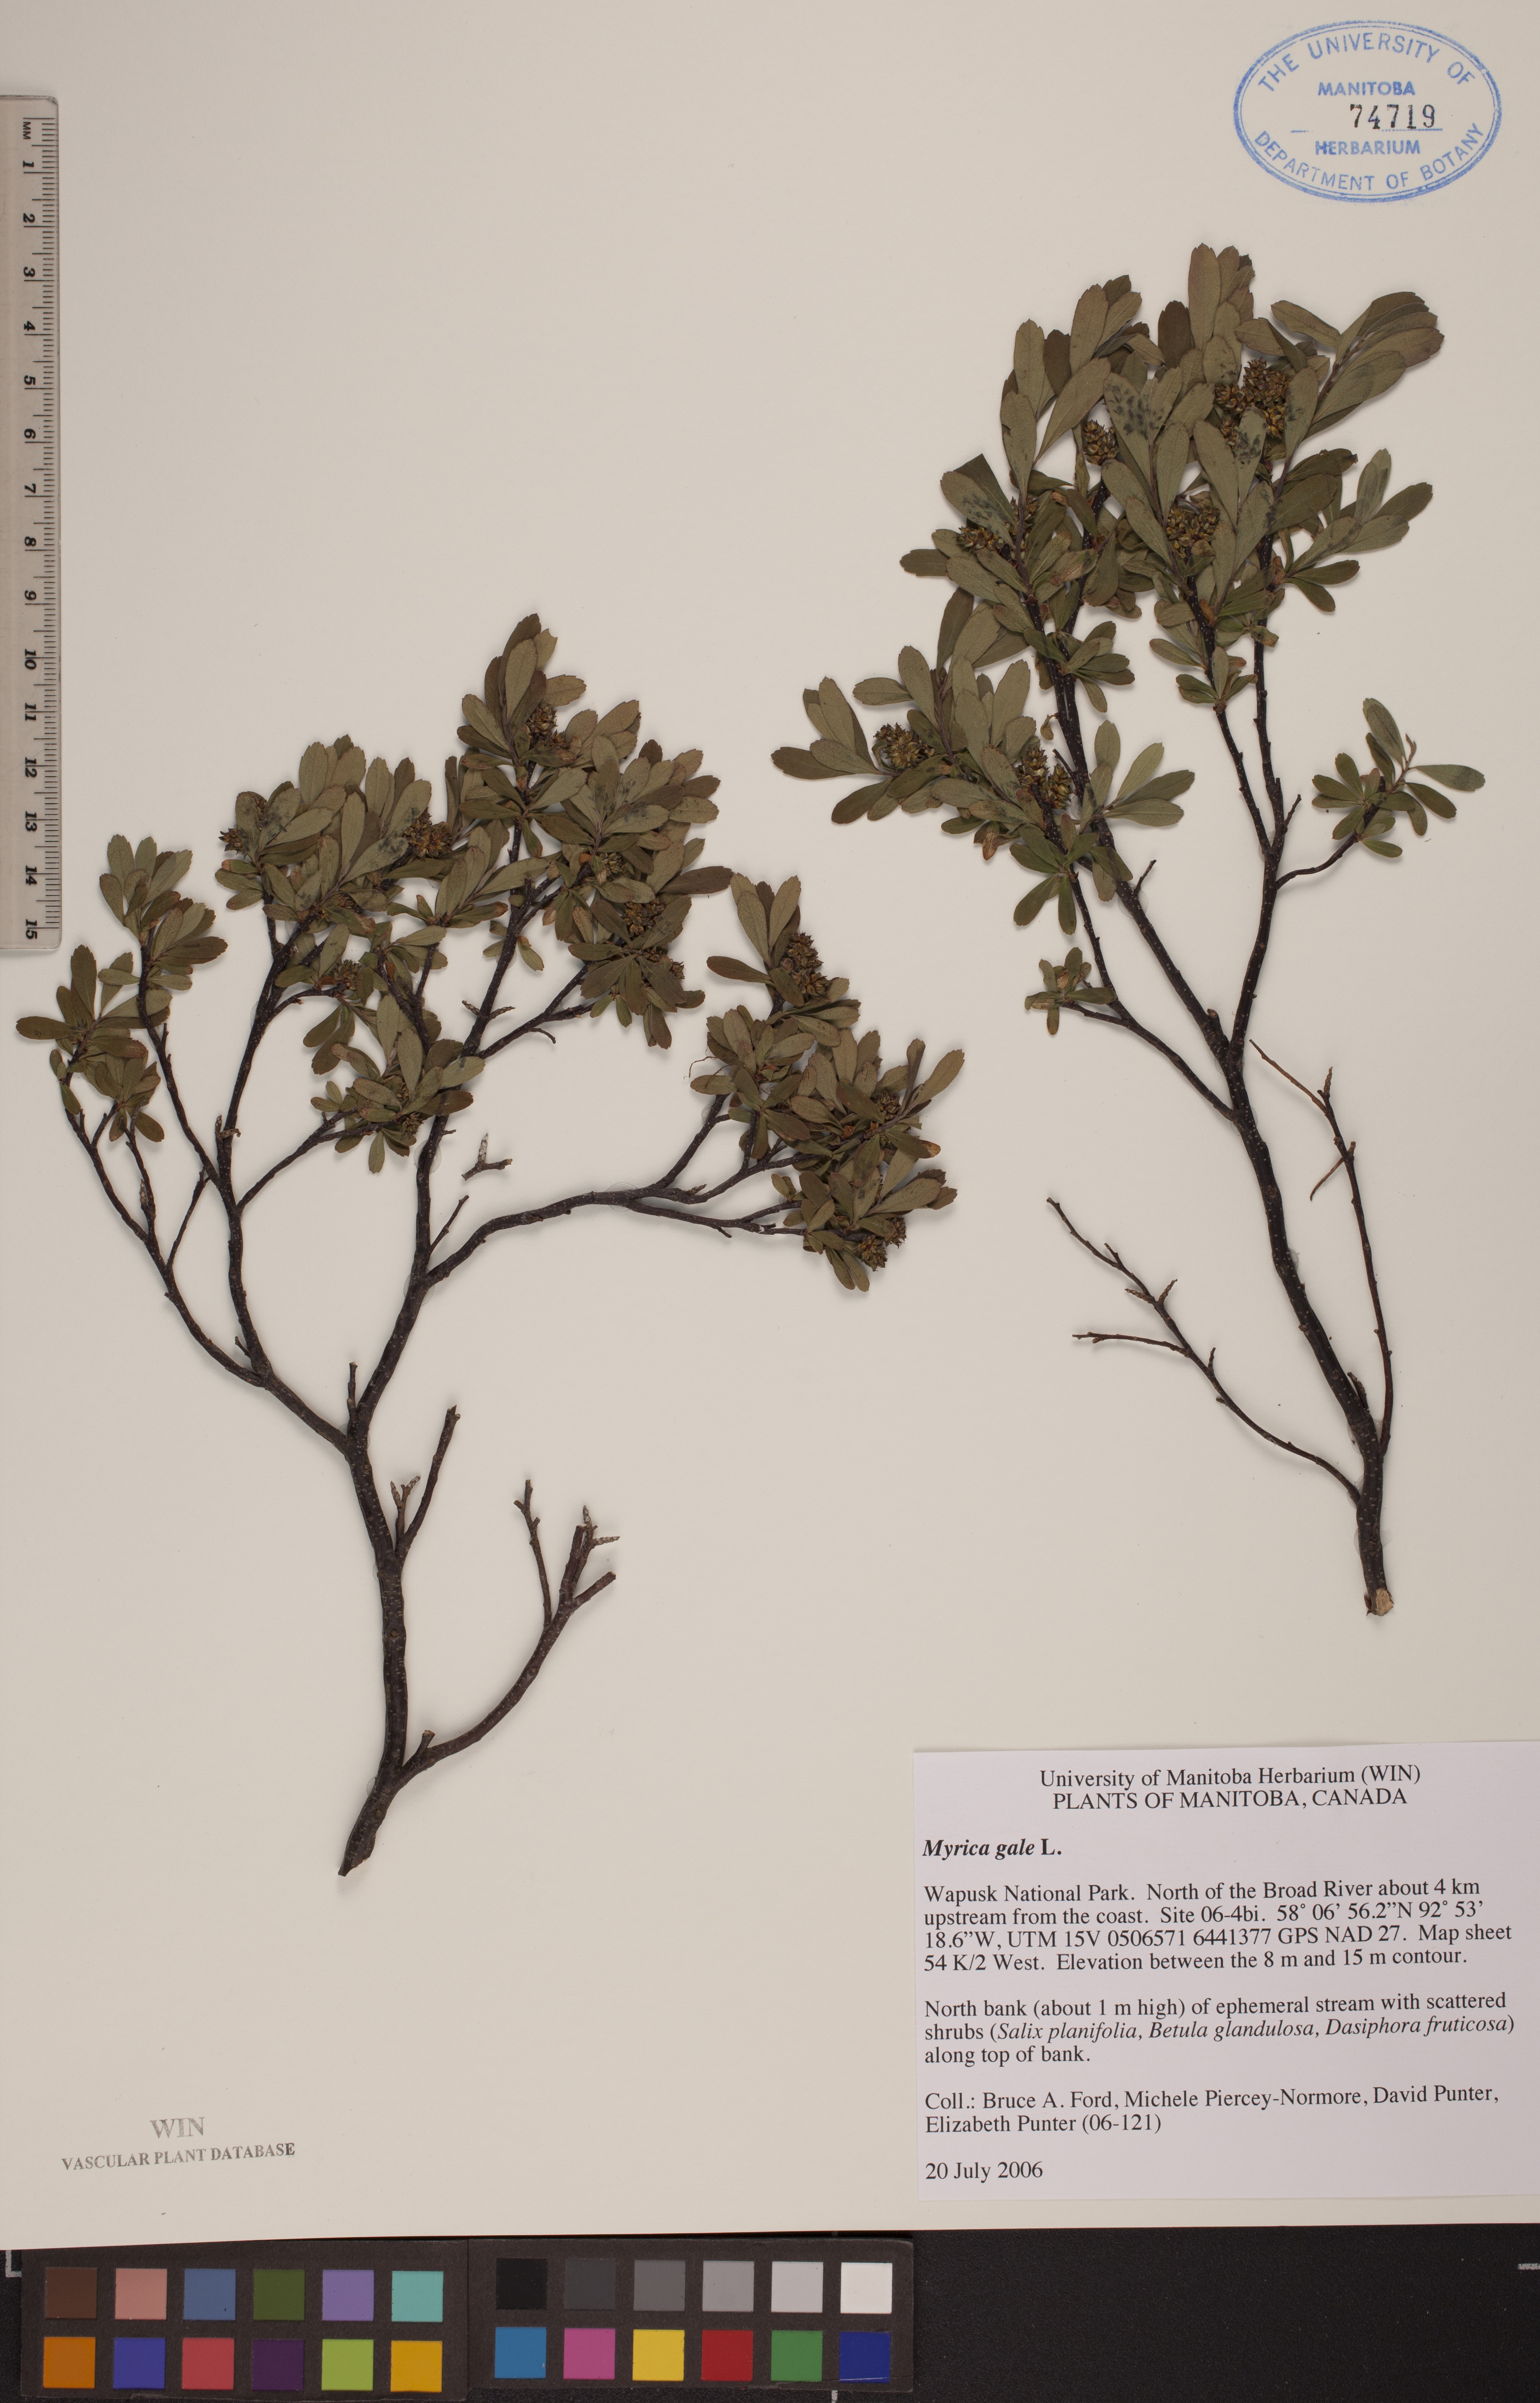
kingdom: Plantae
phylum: Tracheophyta
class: Magnoliopsida
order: Fagales
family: Myricaceae
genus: Myrica
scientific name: Myrica gale
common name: Sweet gale
